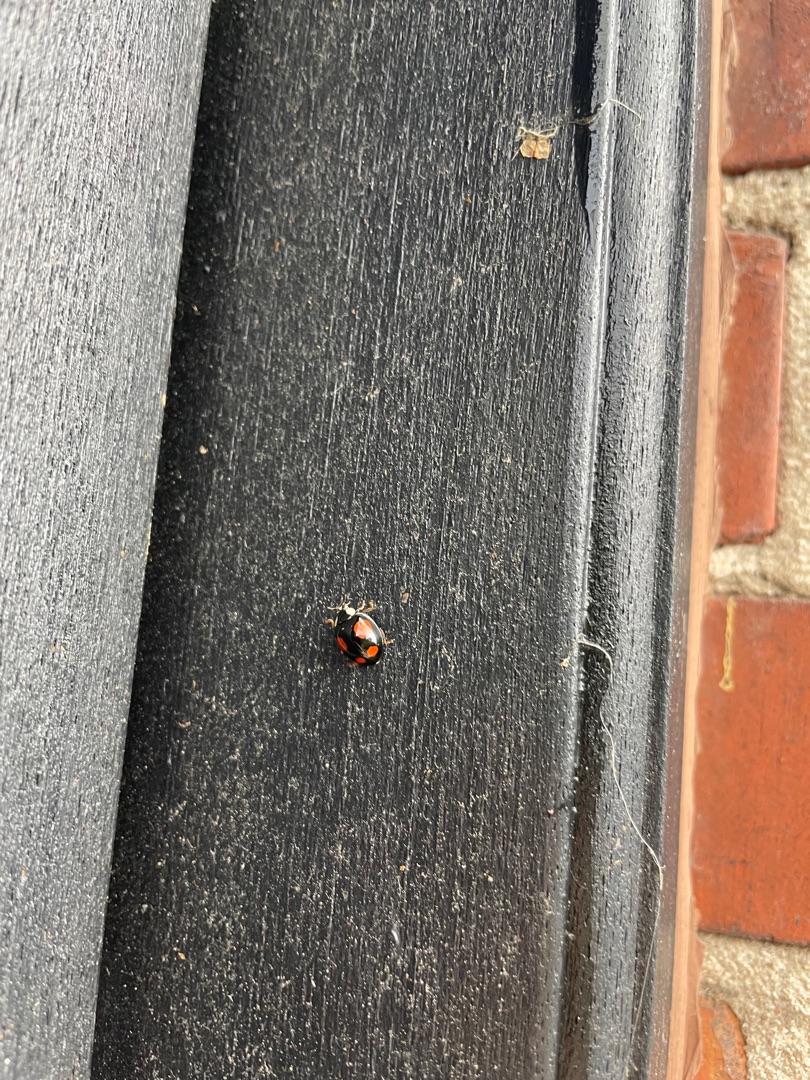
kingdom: Animalia
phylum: Arthropoda
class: Insecta
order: Coleoptera
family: Coccinellidae
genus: Harmonia
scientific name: Harmonia axyridis
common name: Harlekinmariehøne
